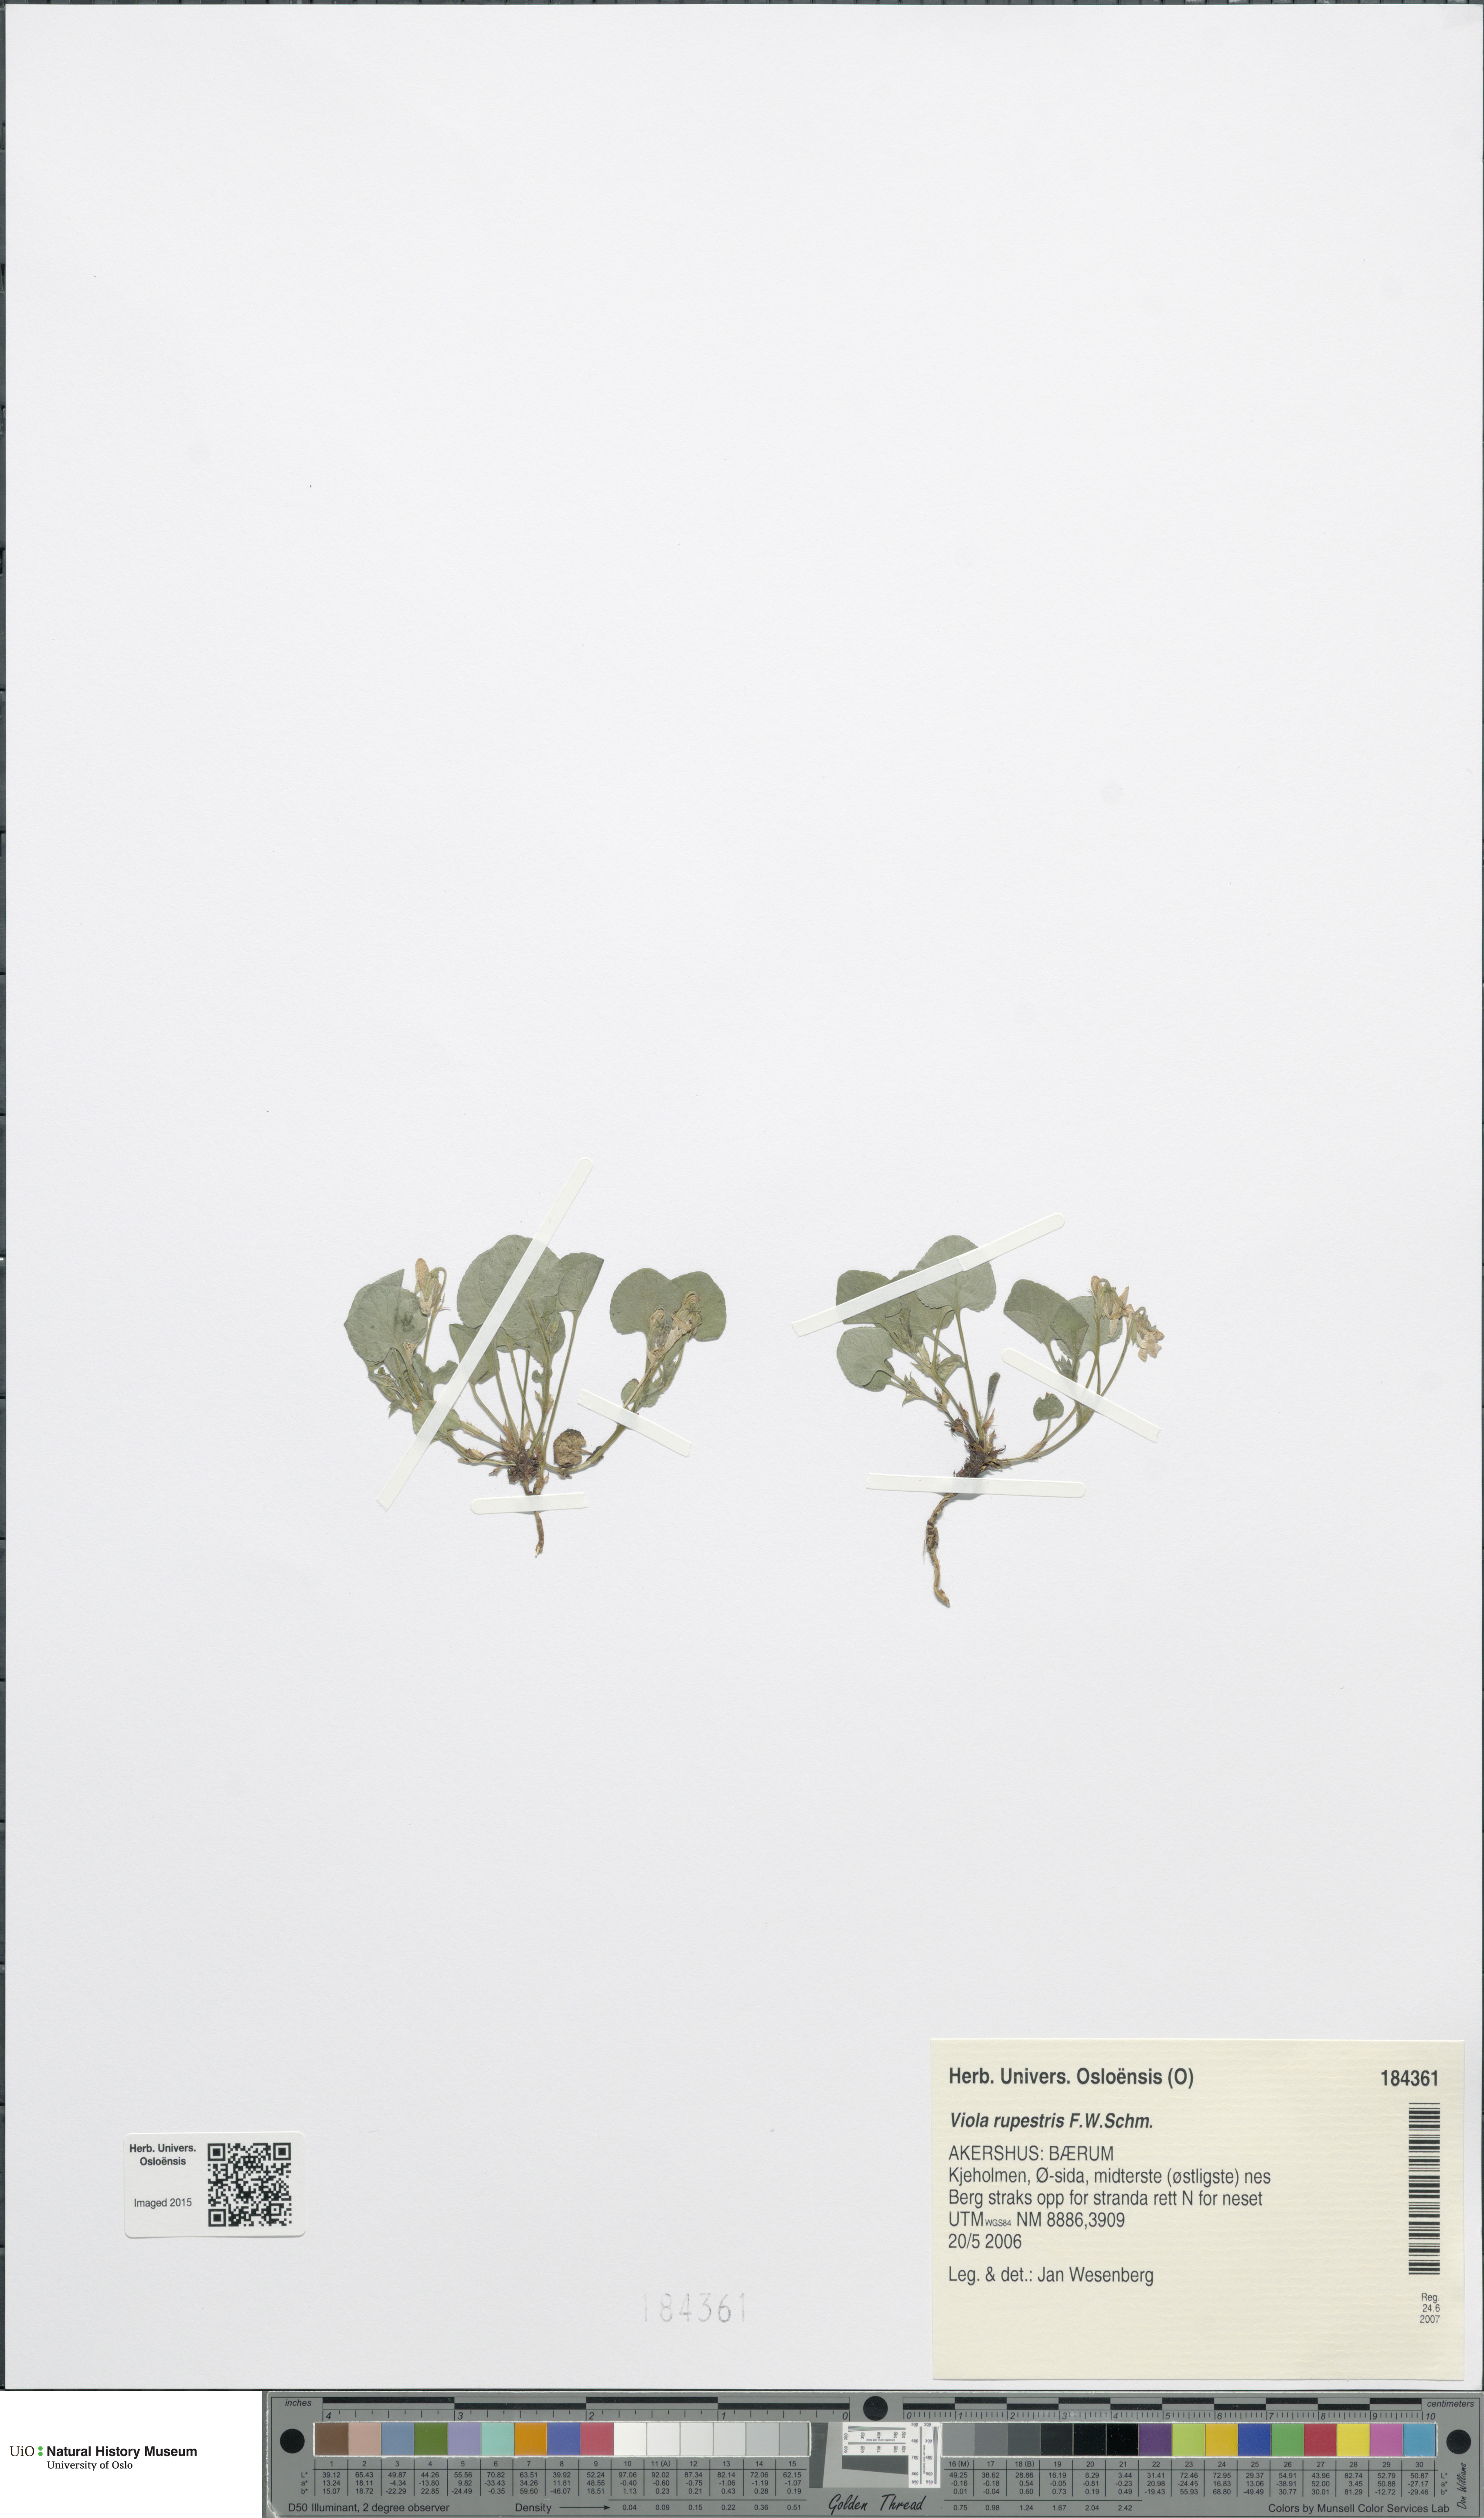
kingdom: Plantae
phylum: Tracheophyta
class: Magnoliopsida
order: Malpighiales
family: Violaceae
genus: Viola
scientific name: Viola rupestris
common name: Teesdale violet
